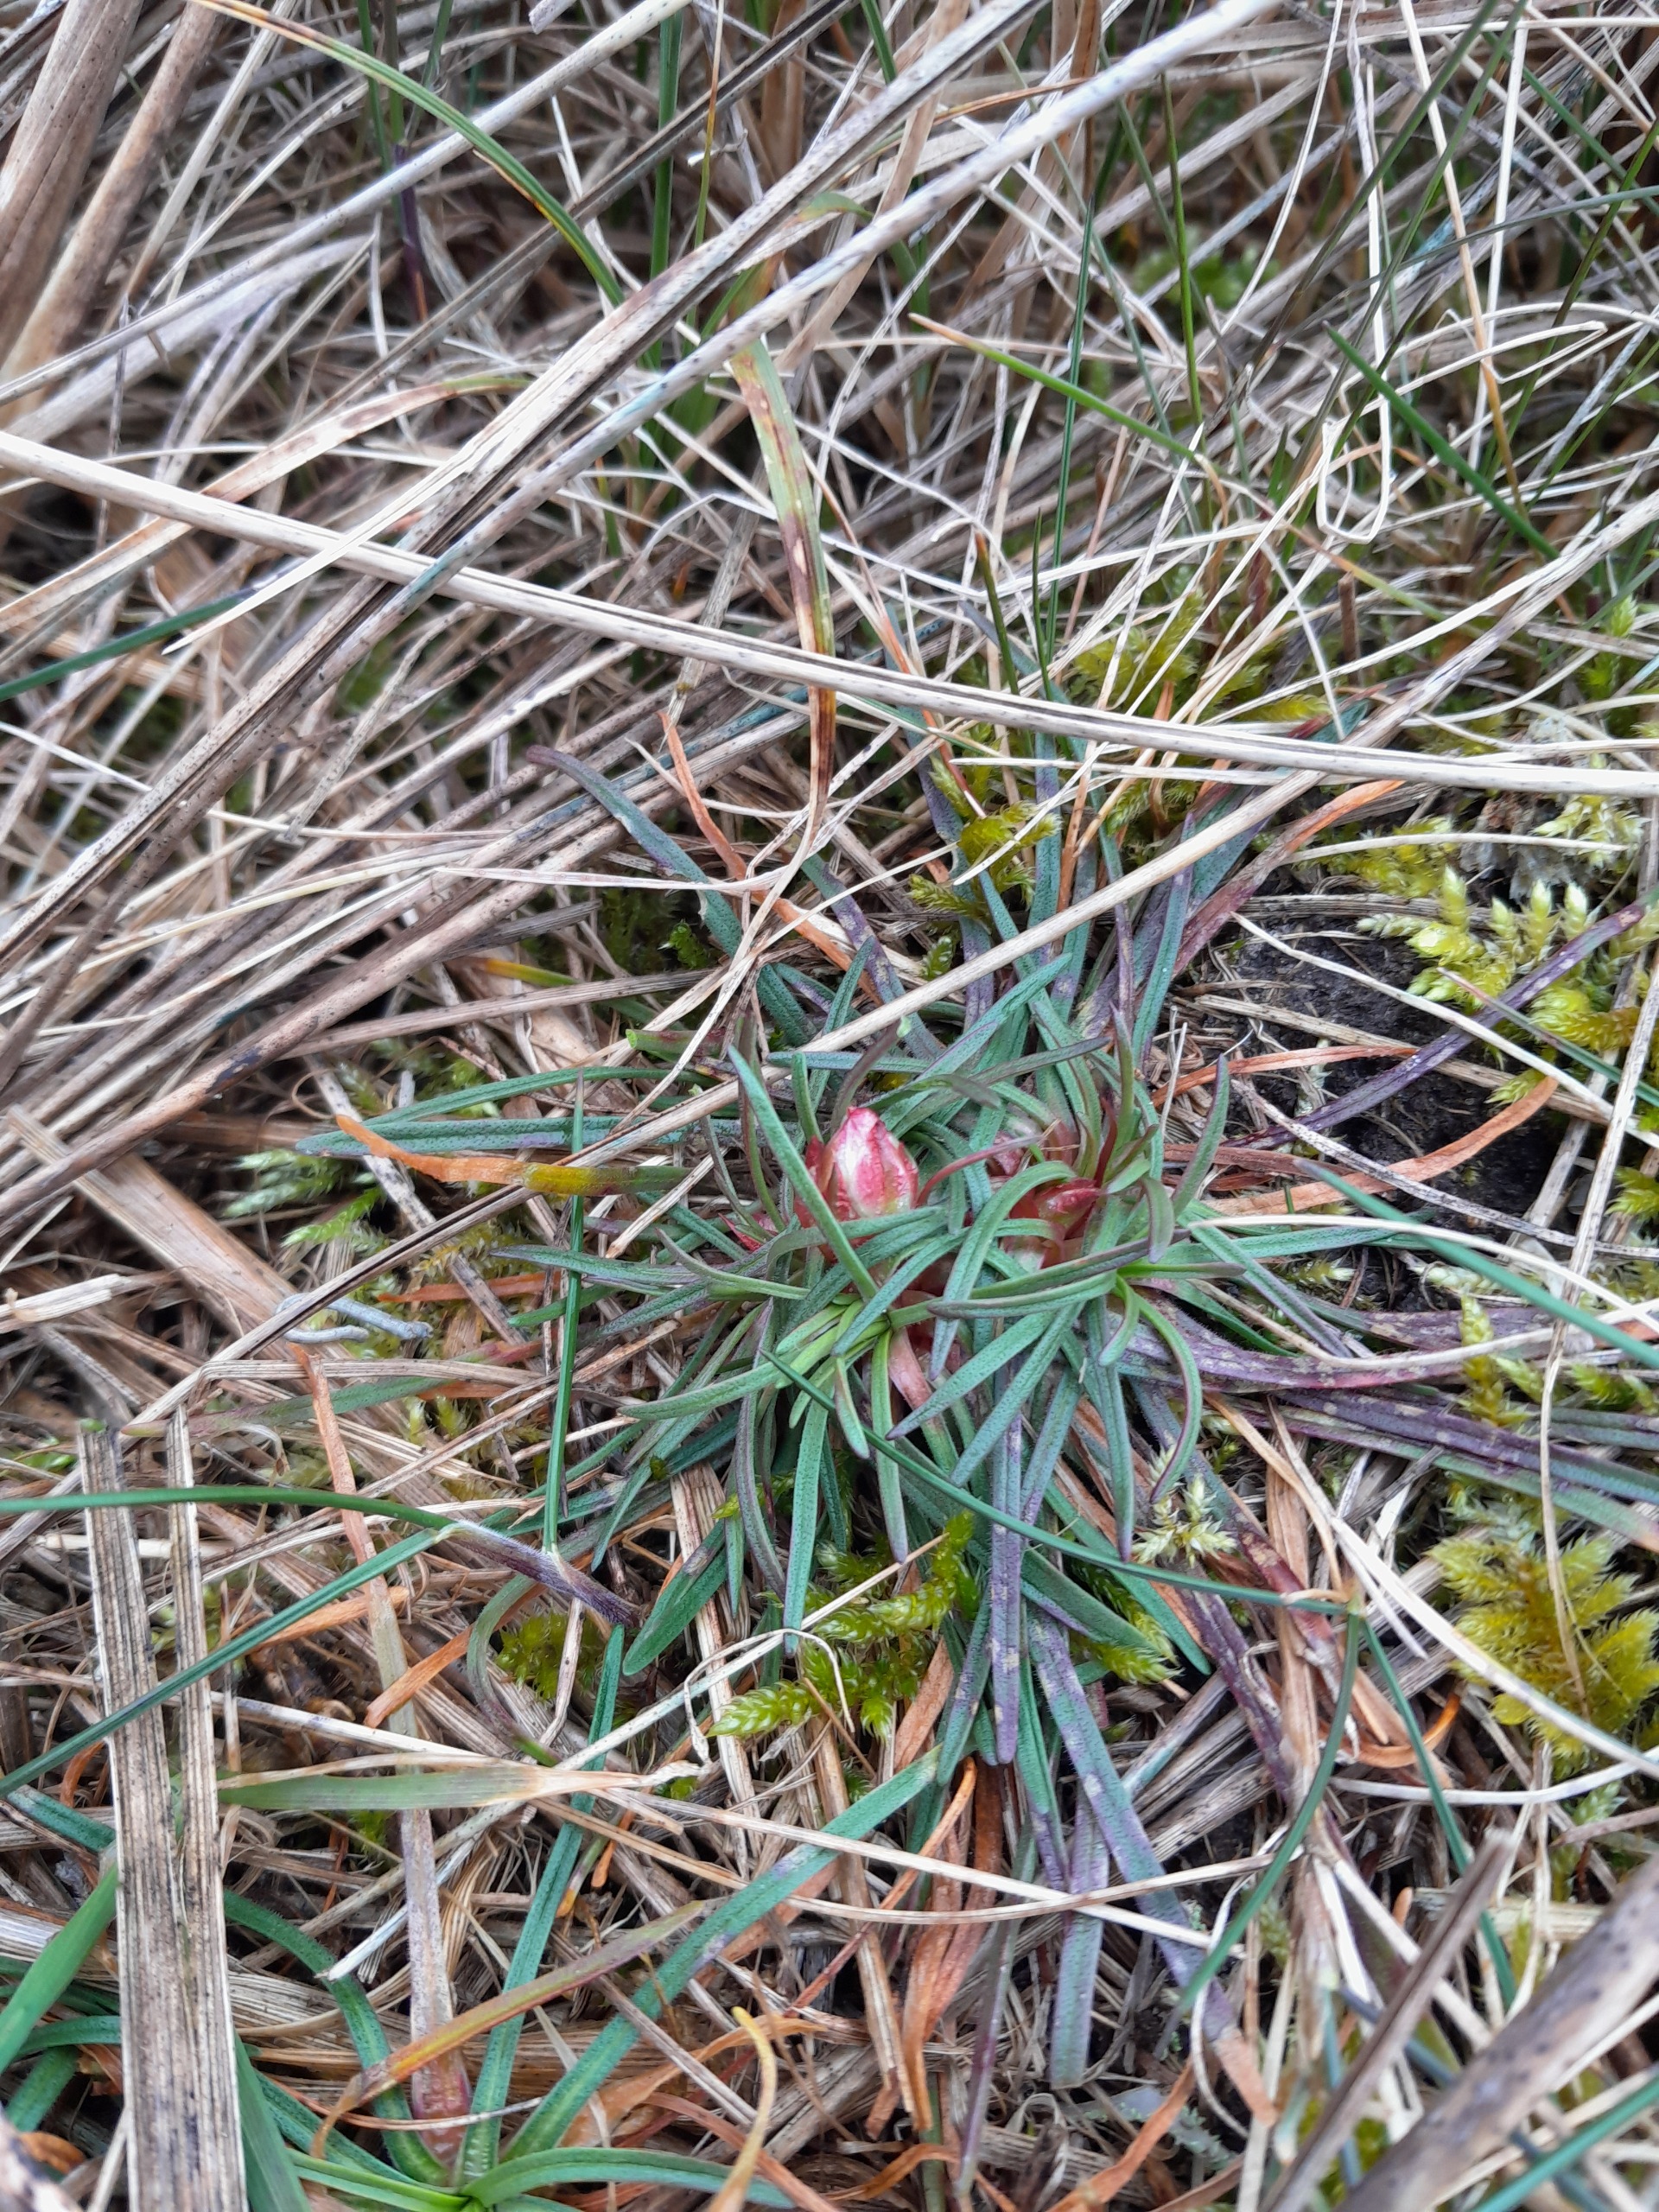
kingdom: Plantae
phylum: Tracheophyta
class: Magnoliopsida
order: Caryophyllales
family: Plumbaginaceae
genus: Armeria
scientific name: Armeria maritima
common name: Engelskgræs
